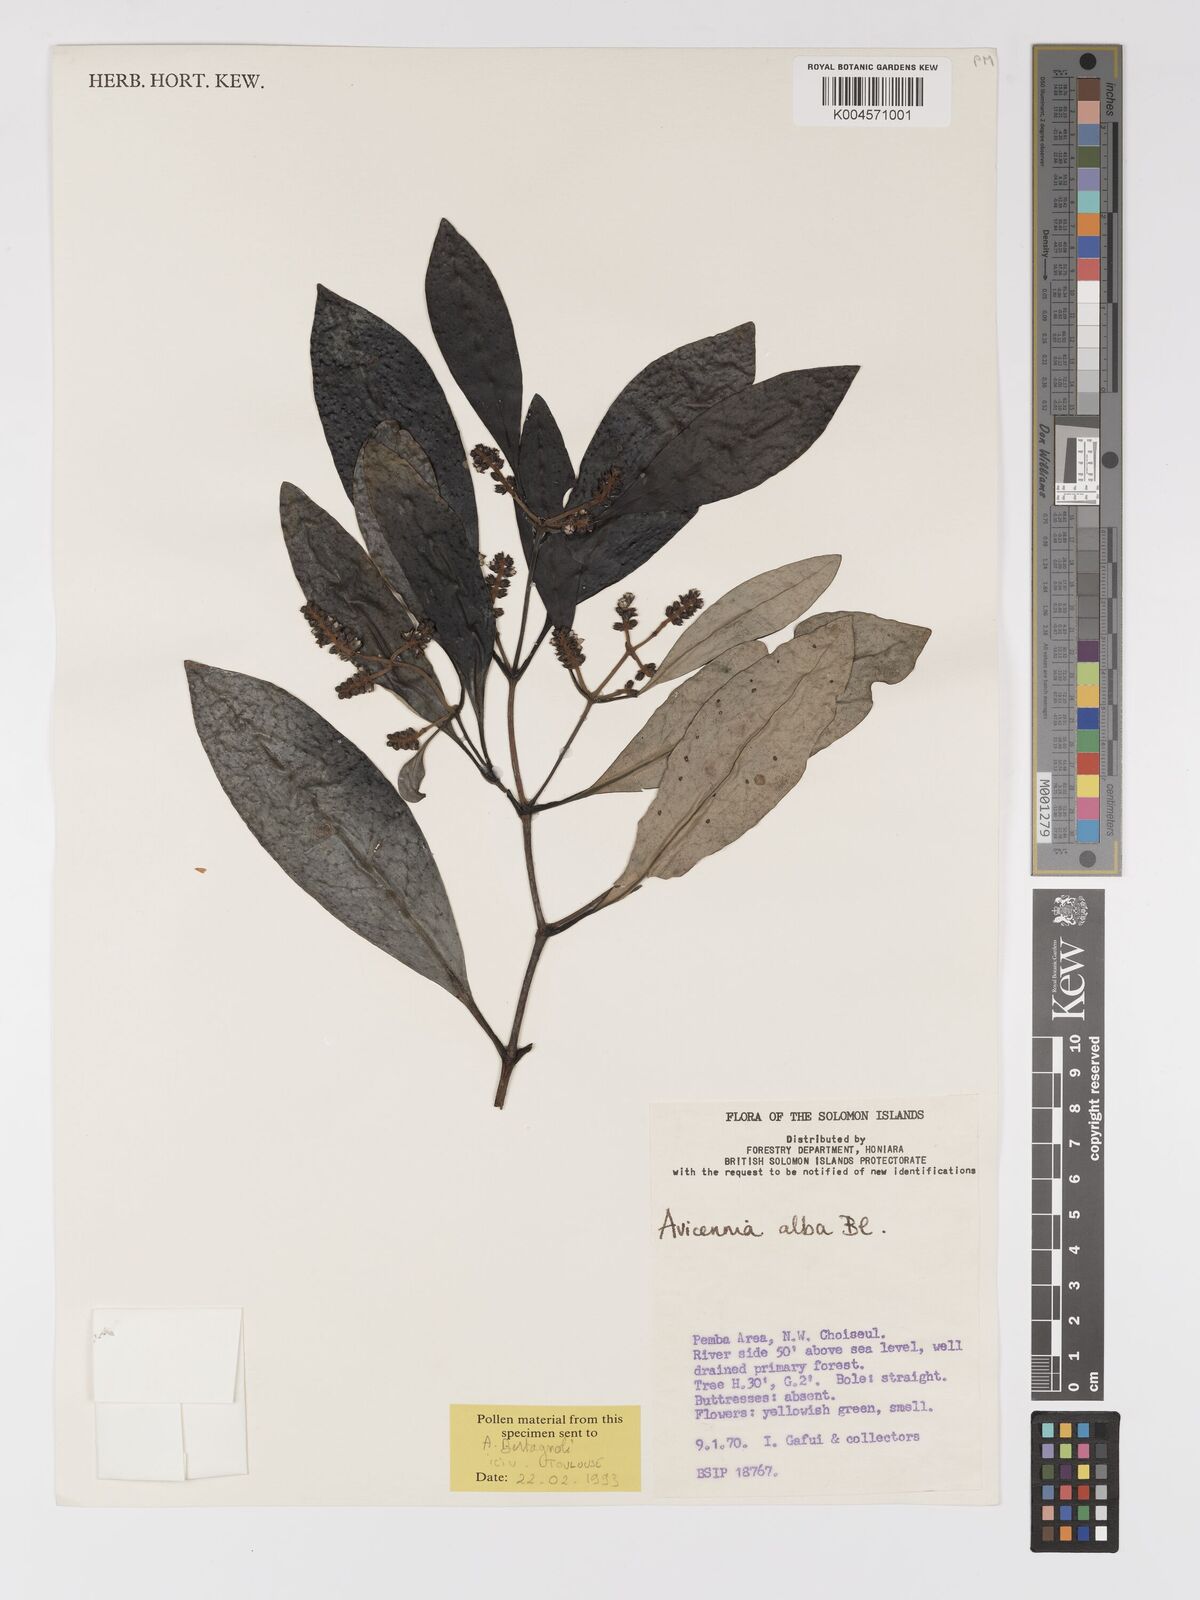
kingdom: Plantae
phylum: Tracheophyta
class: Magnoliopsida
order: Lamiales
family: Acanthaceae
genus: Avicennia
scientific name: Avicennia alba
